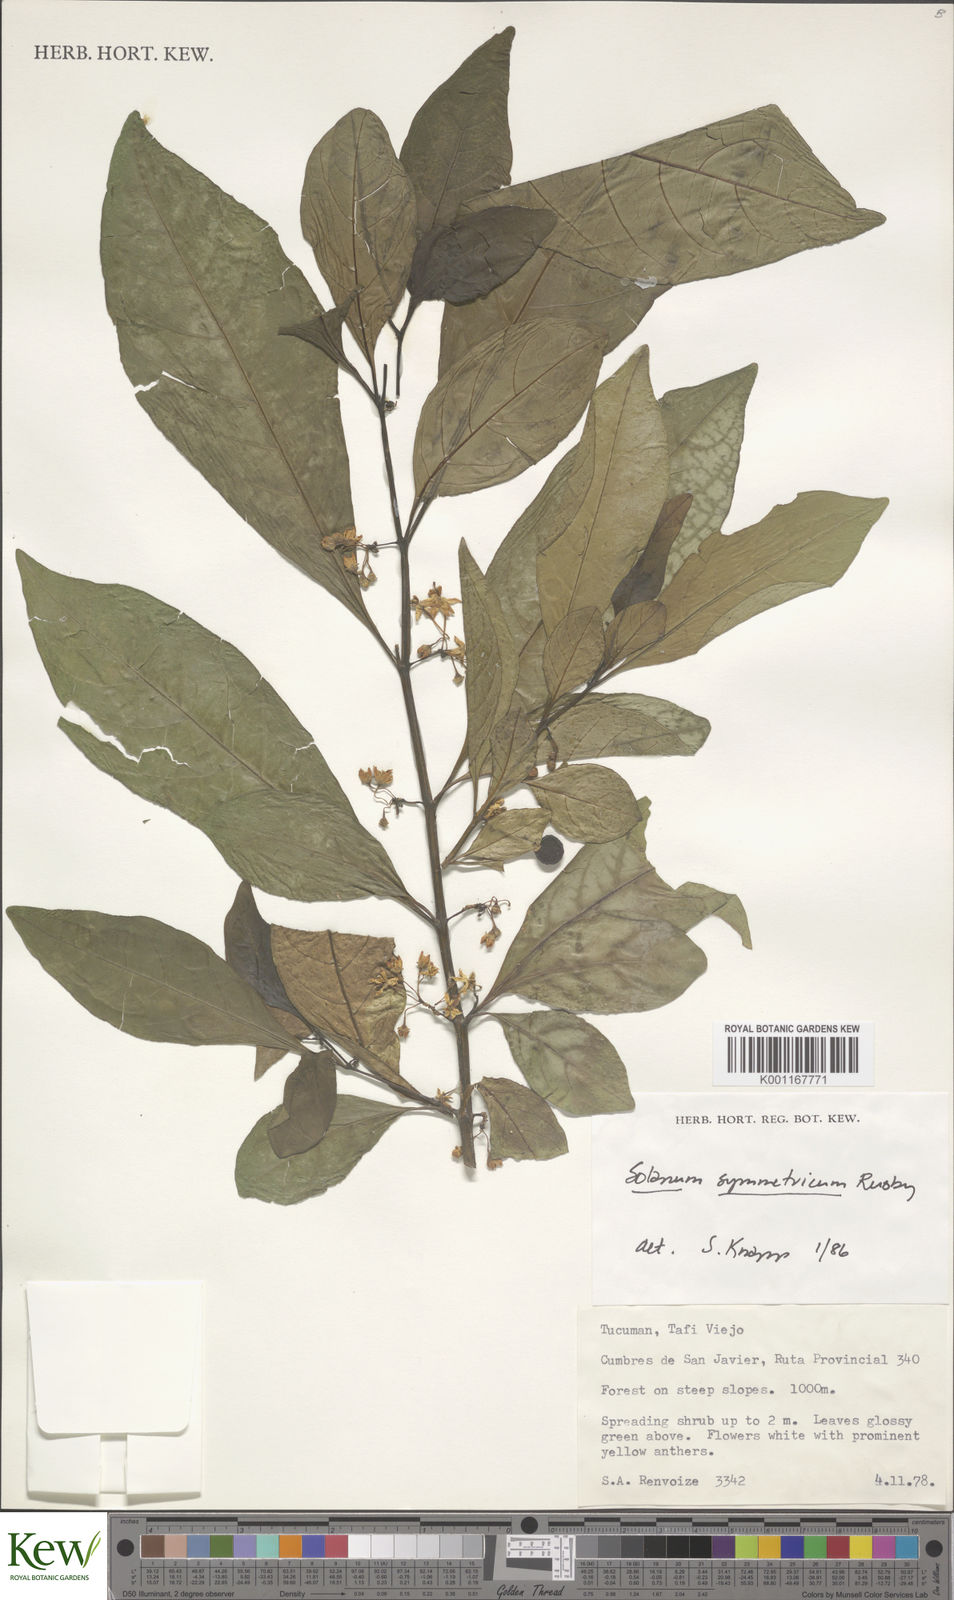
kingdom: Plantae
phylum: Tracheophyta
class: Magnoliopsida
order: Solanales
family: Solanaceae
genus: Solanum
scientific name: Solanum symmetricum
